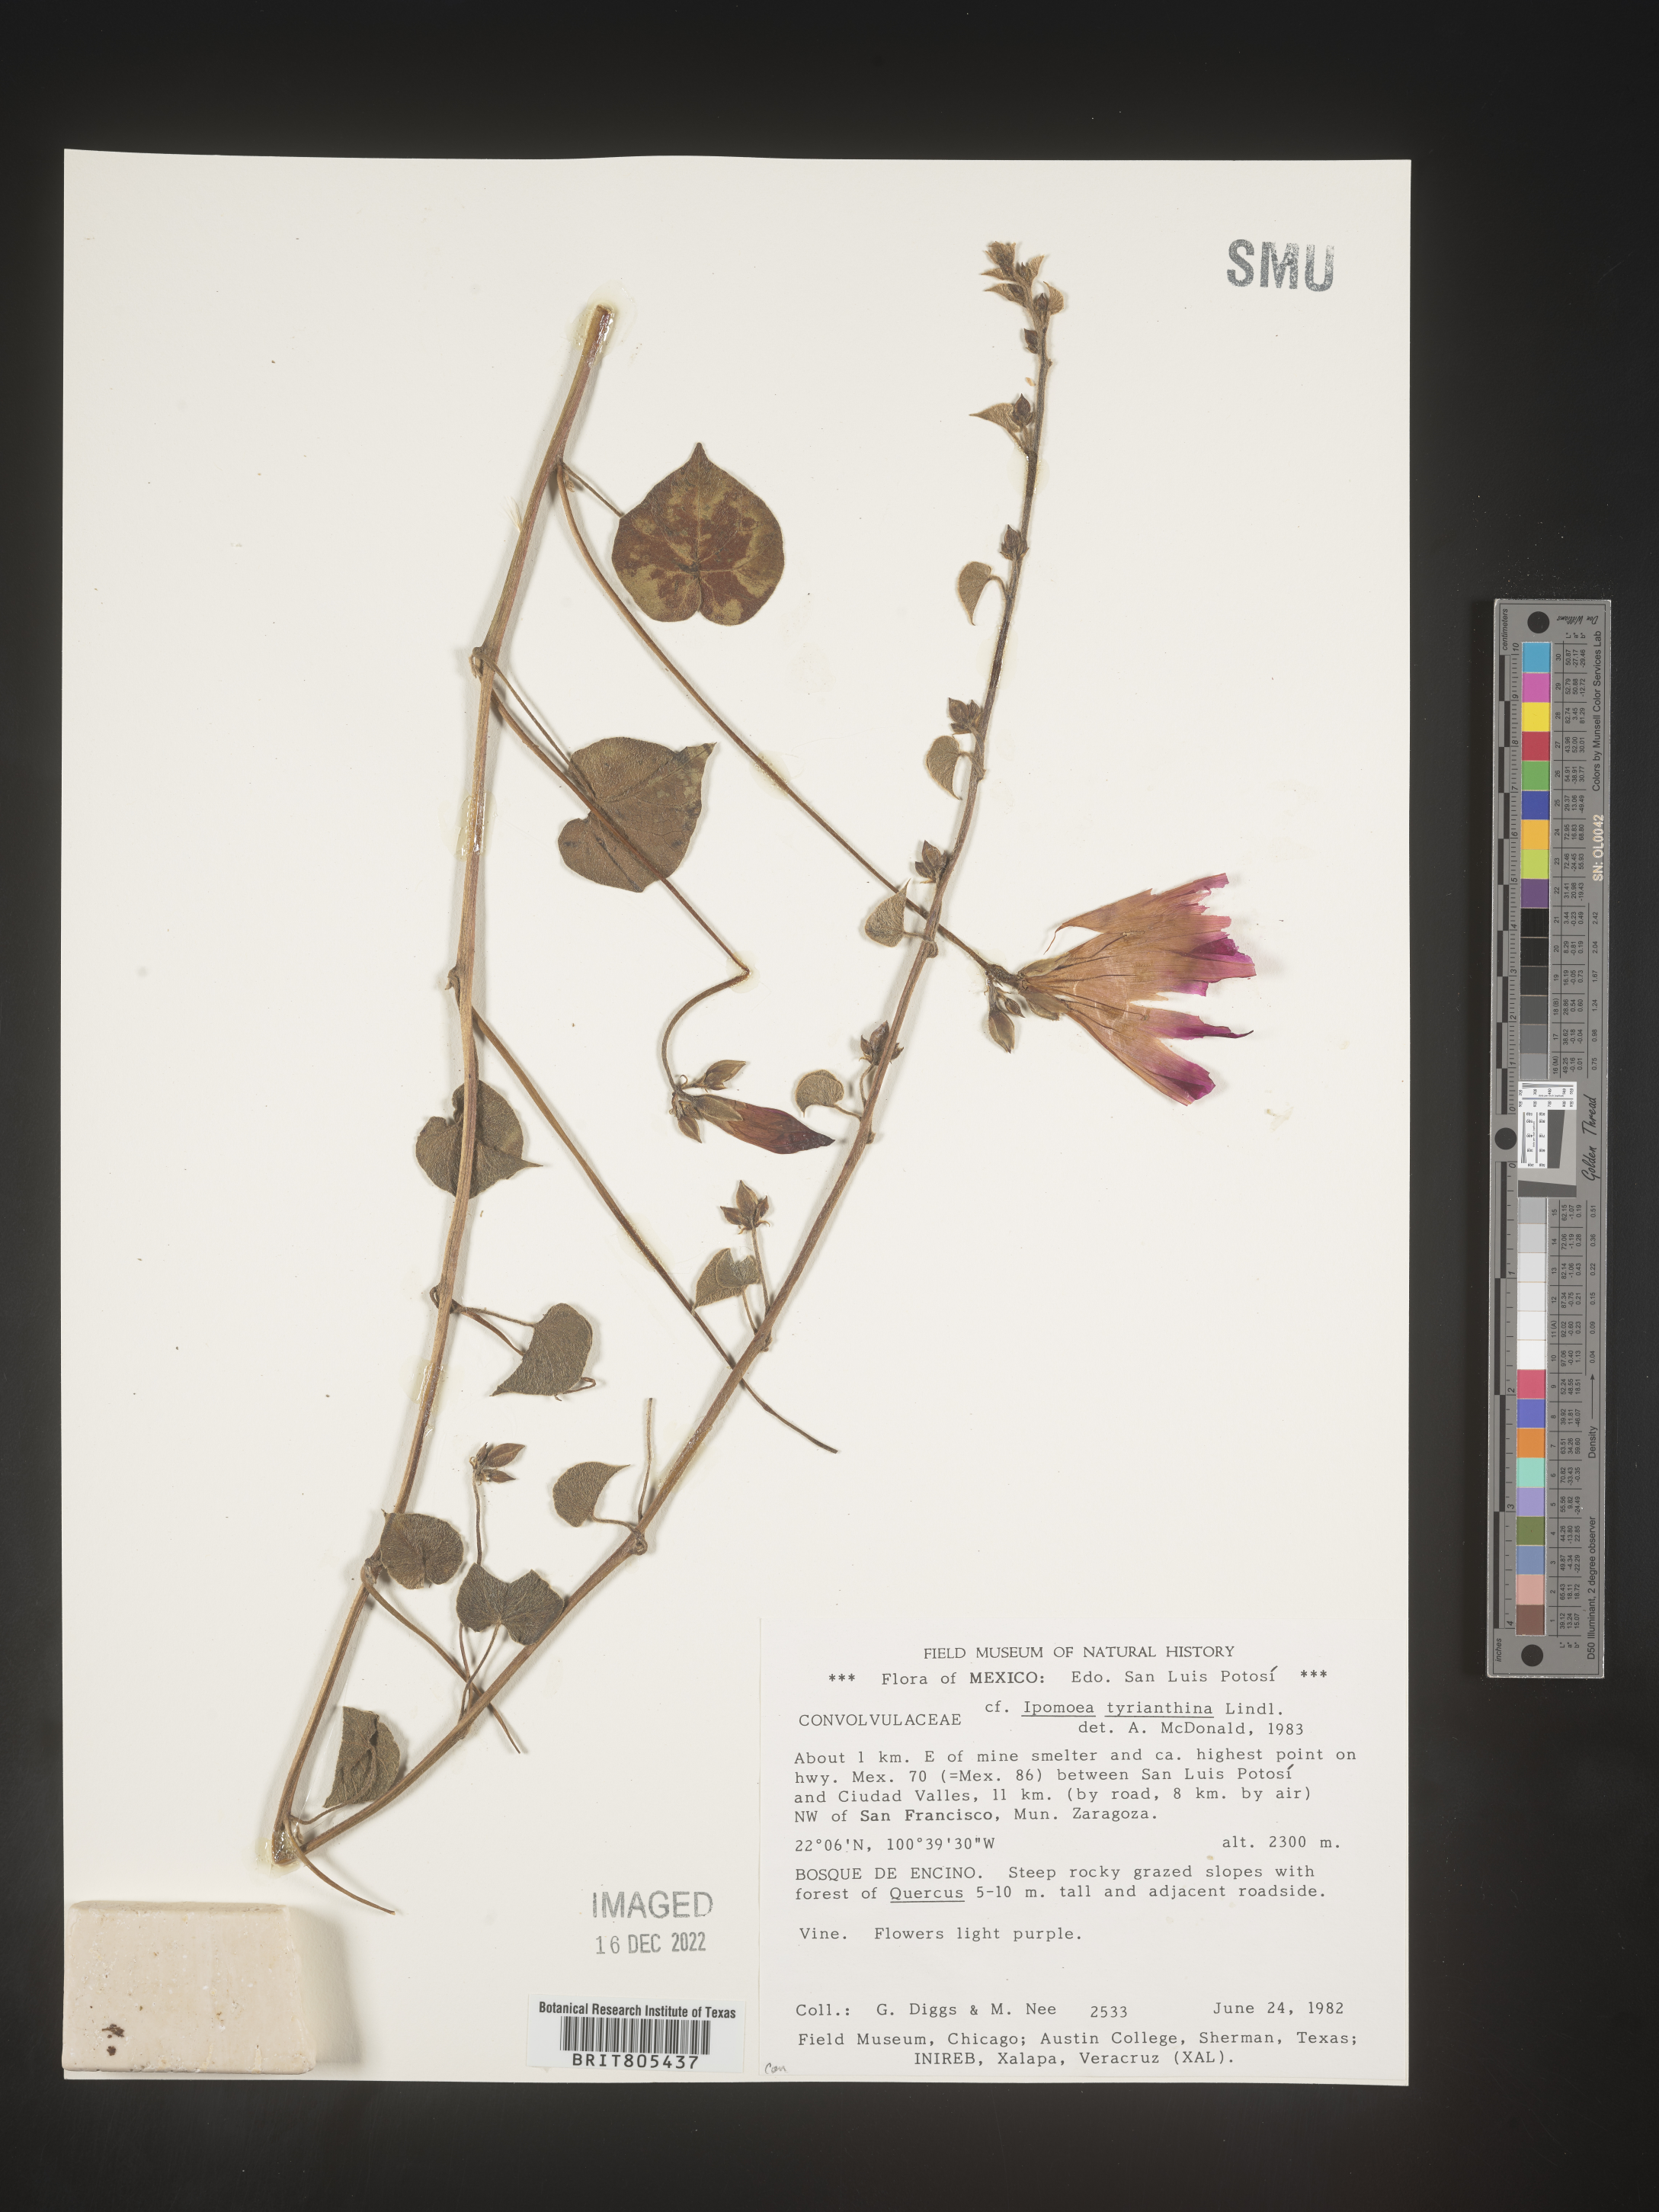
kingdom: Plantae
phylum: Tracheophyta
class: Magnoliopsida
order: Solanales
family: Convolvulaceae
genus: Ipomoea
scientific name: Ipomoea
